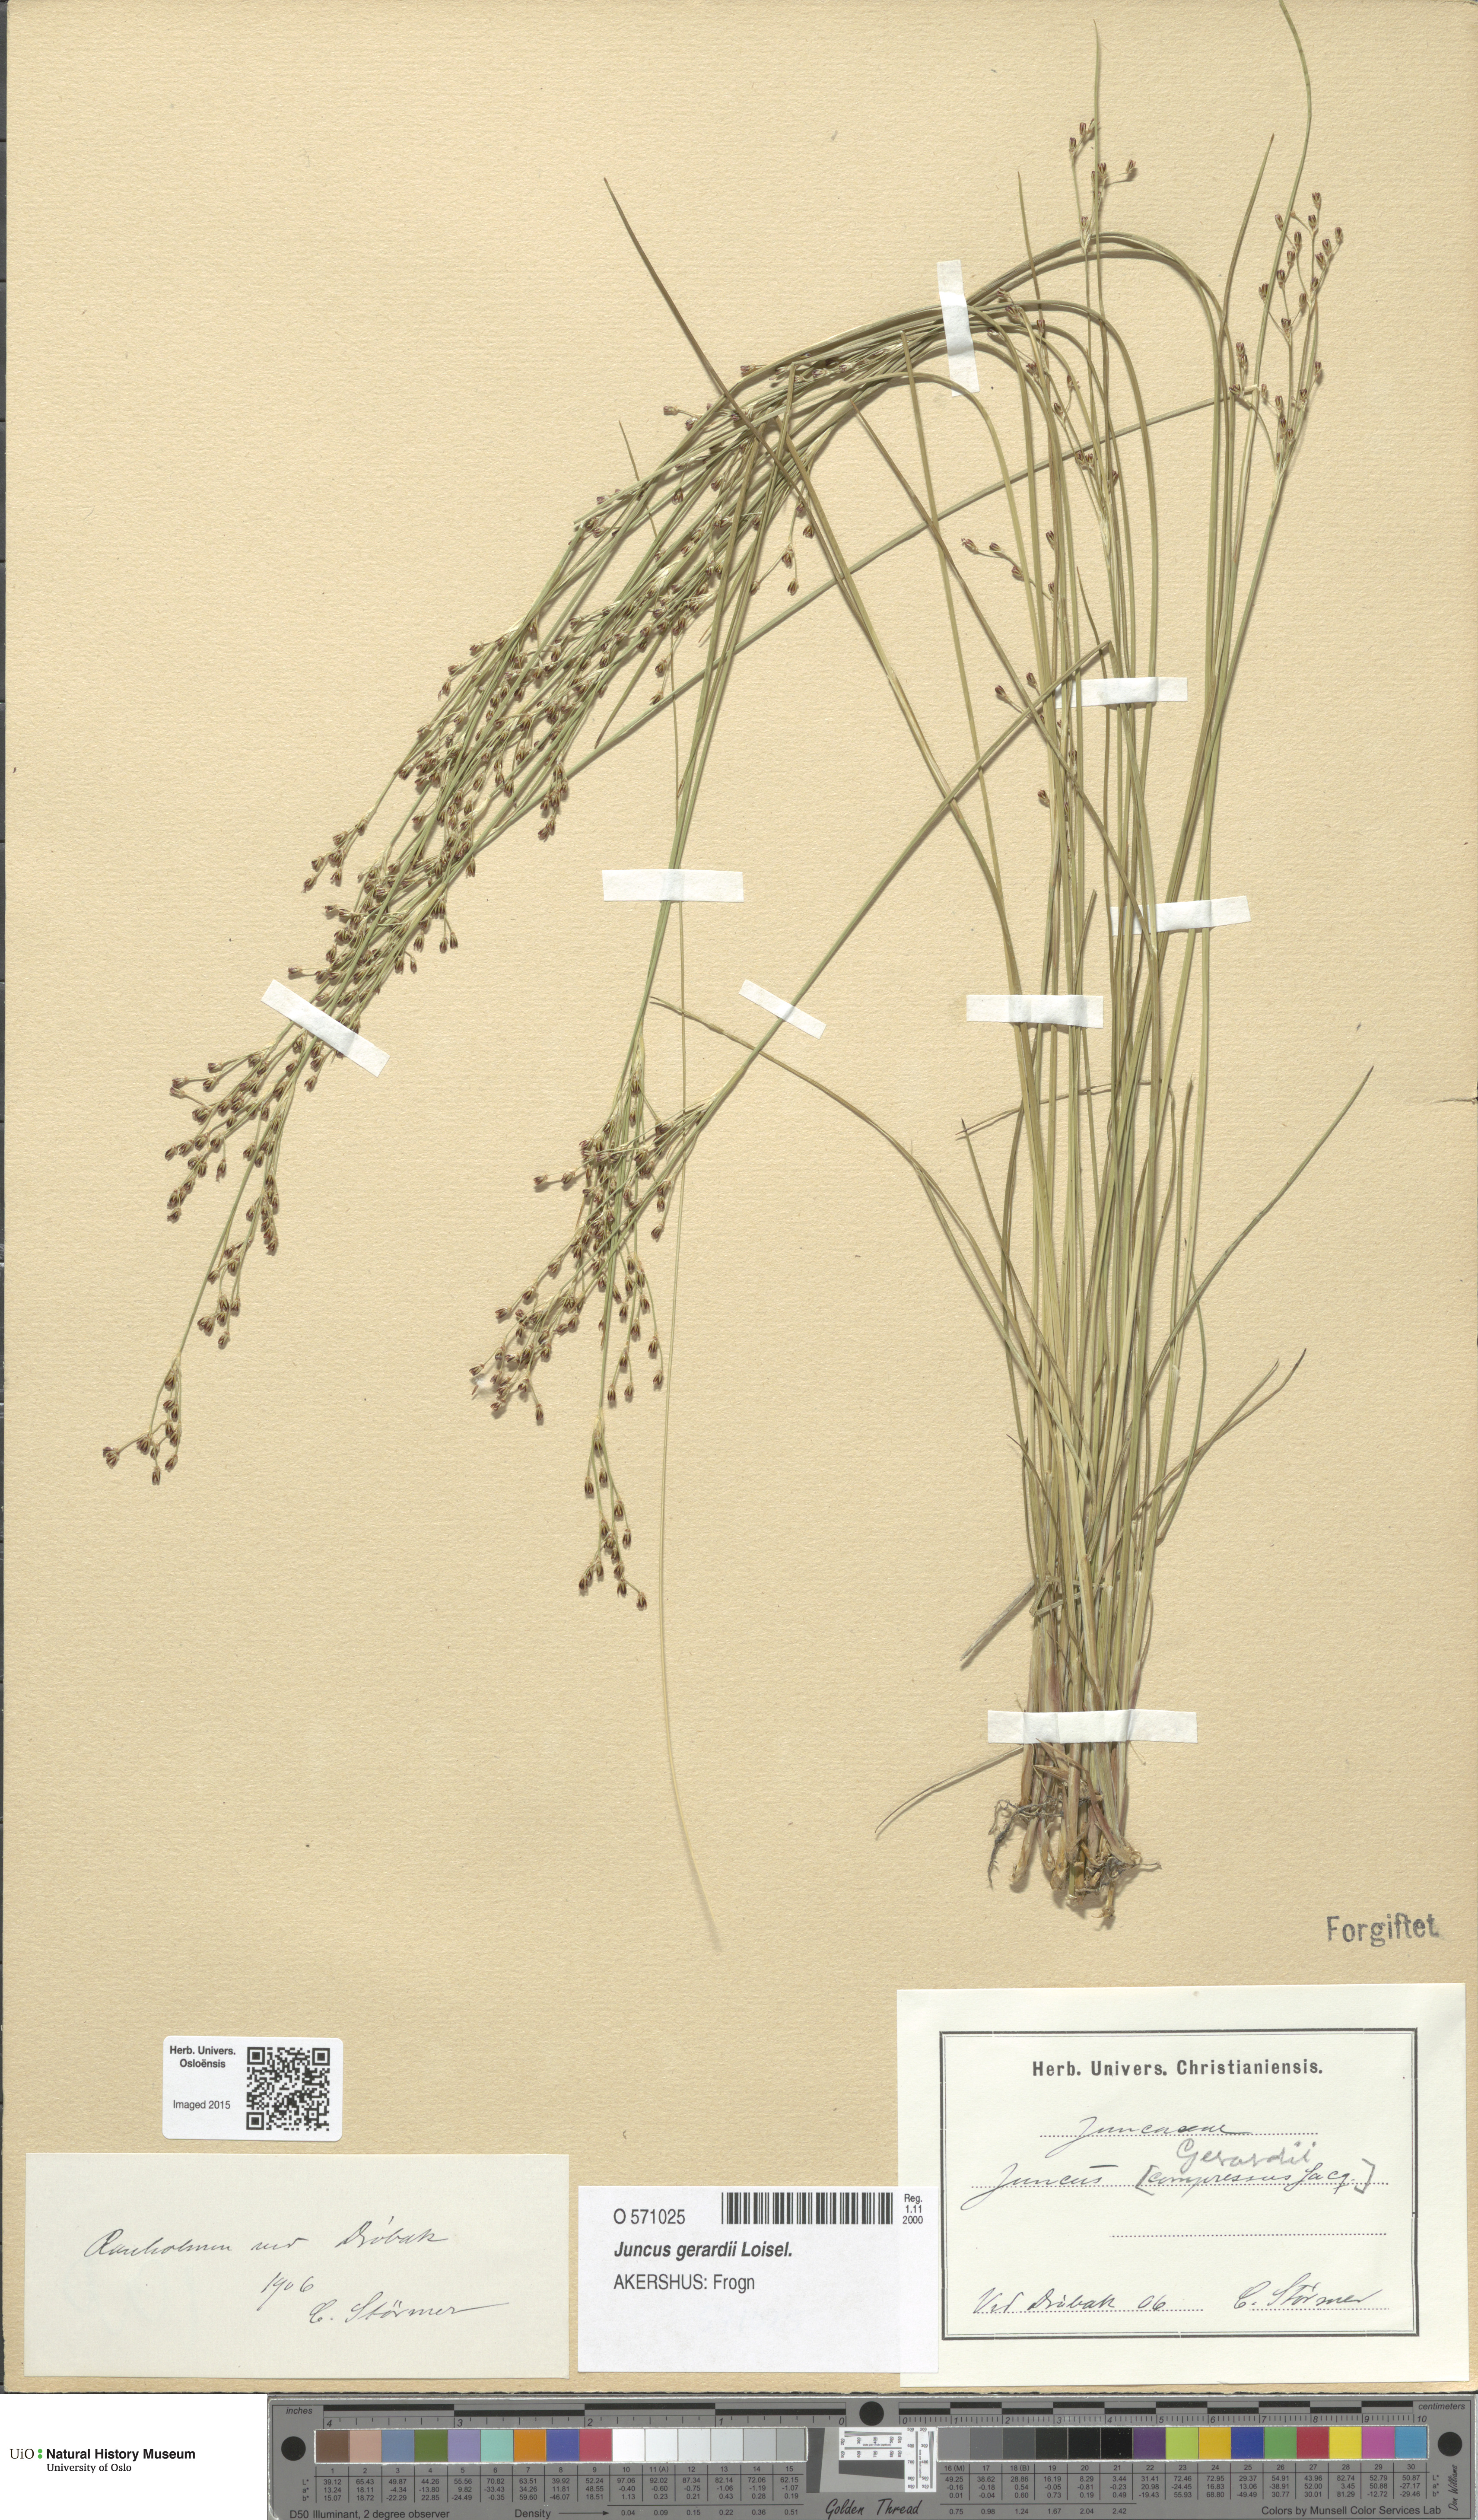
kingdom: Plantae
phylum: Tracheophyta
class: Liliopsida
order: Poales
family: Juncaceae
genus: Juncus
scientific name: Juncus gerardi
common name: Saltmarsh rush
